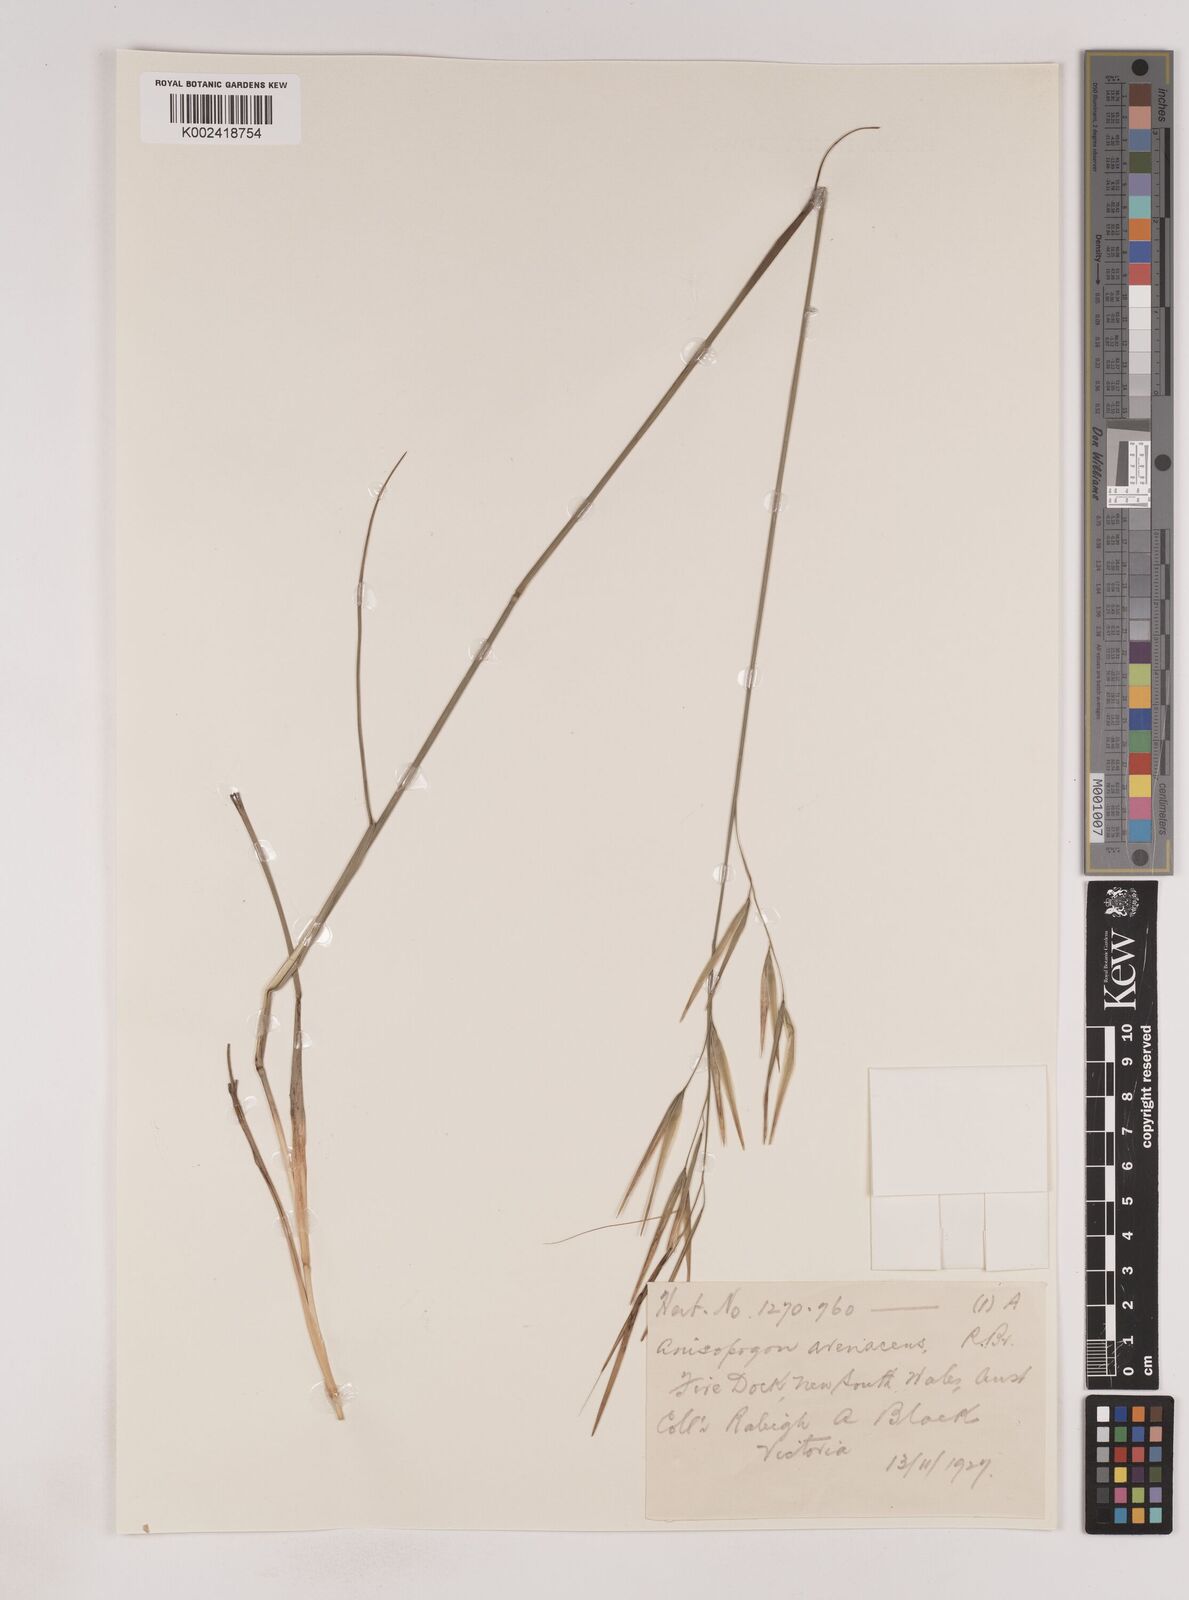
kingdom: Plantae
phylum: Tracheophyta
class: Liliopsida
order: Poales
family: Poaceae
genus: Anisopogon
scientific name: Anisopogon avenaceus
